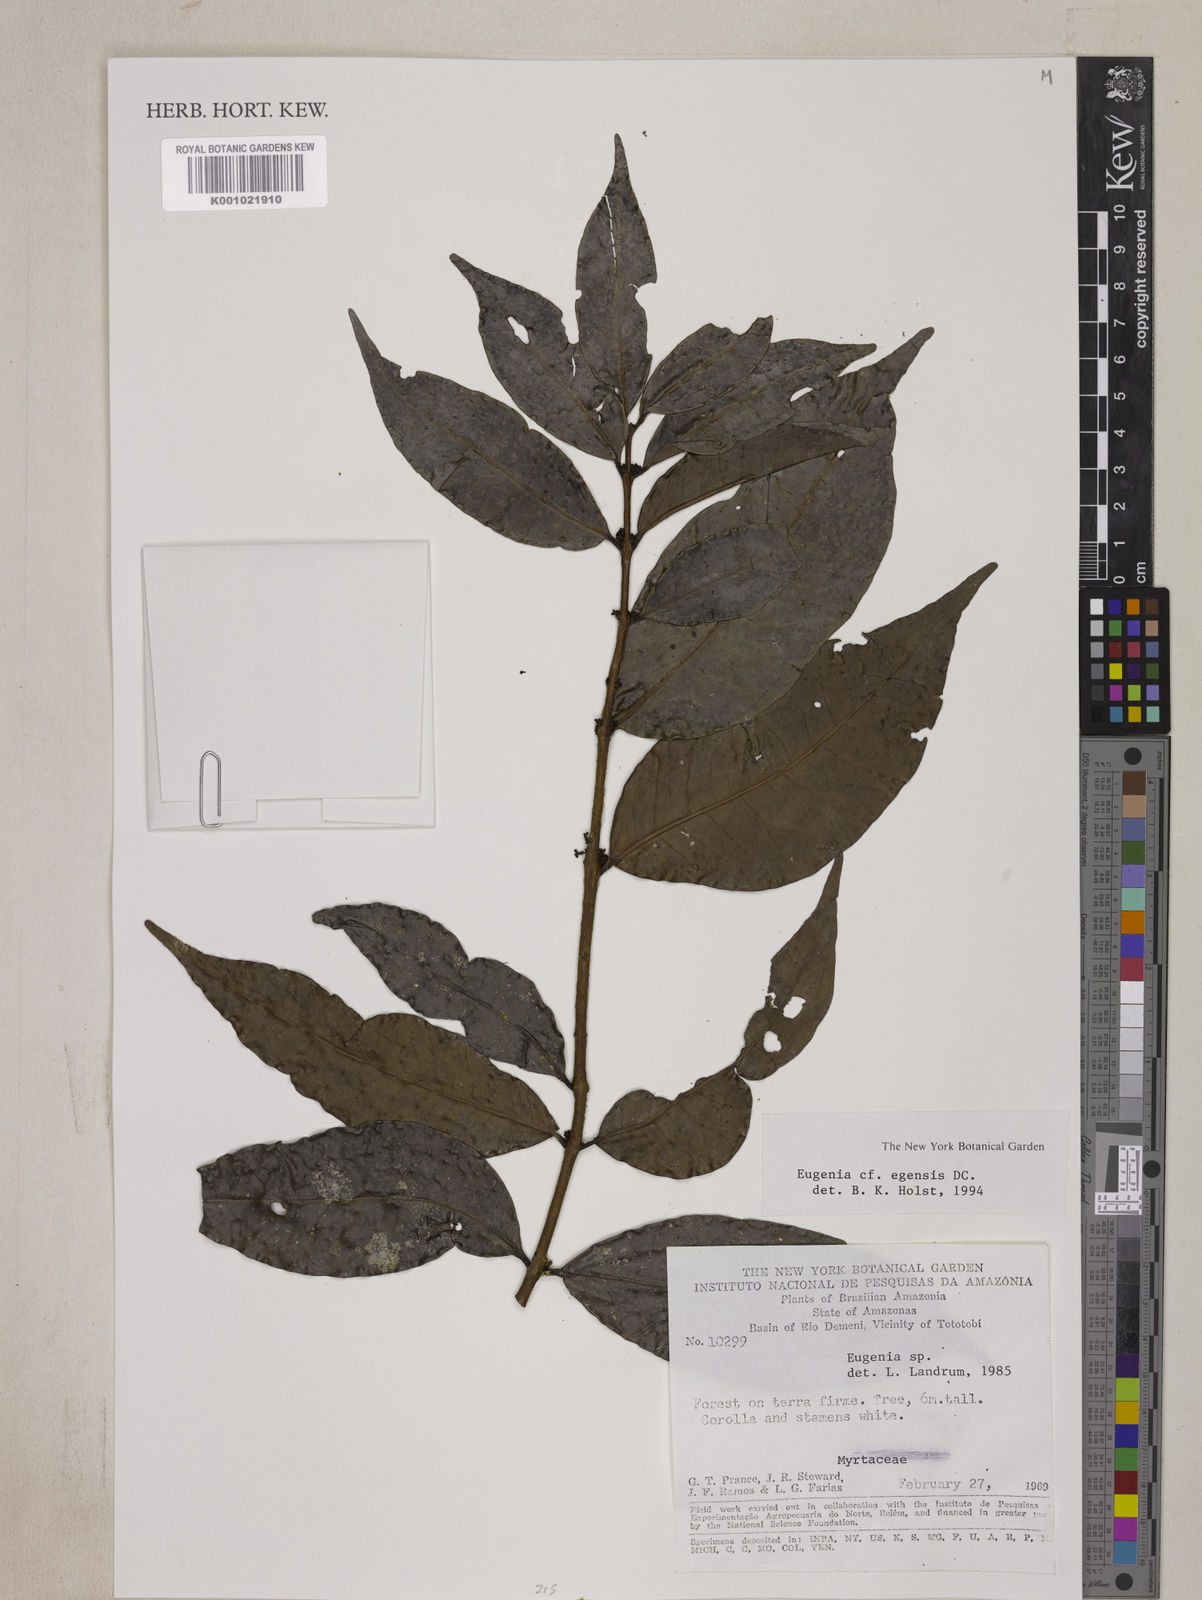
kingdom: Plantae
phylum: Tracheophyta
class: Magnoliopsida
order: Myrtales
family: Myrtaceae
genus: Eugenia
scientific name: Eugenia egensis
